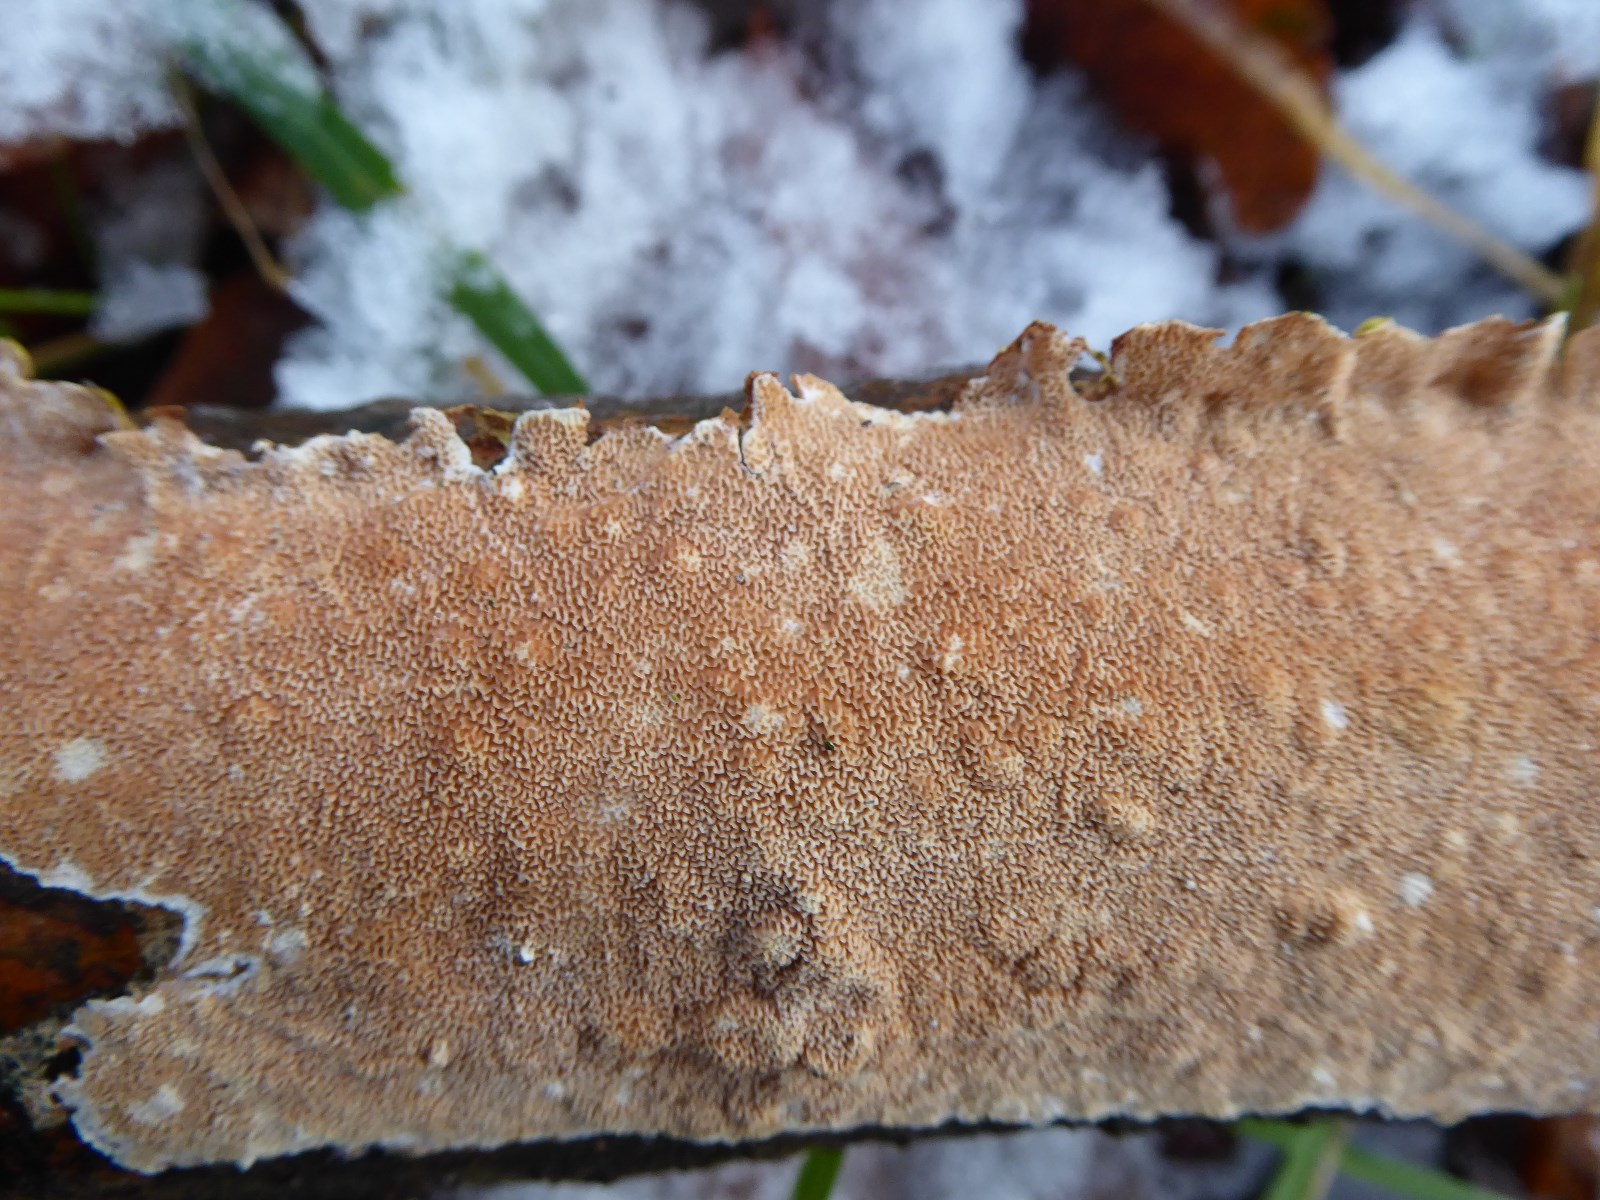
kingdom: Fungi
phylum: Basidiomycota
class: Agaricomycetes
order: Polyporales
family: Irpicaceae
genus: Byssomerulius
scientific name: Byssomerulius corium
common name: læder-åresvamp
